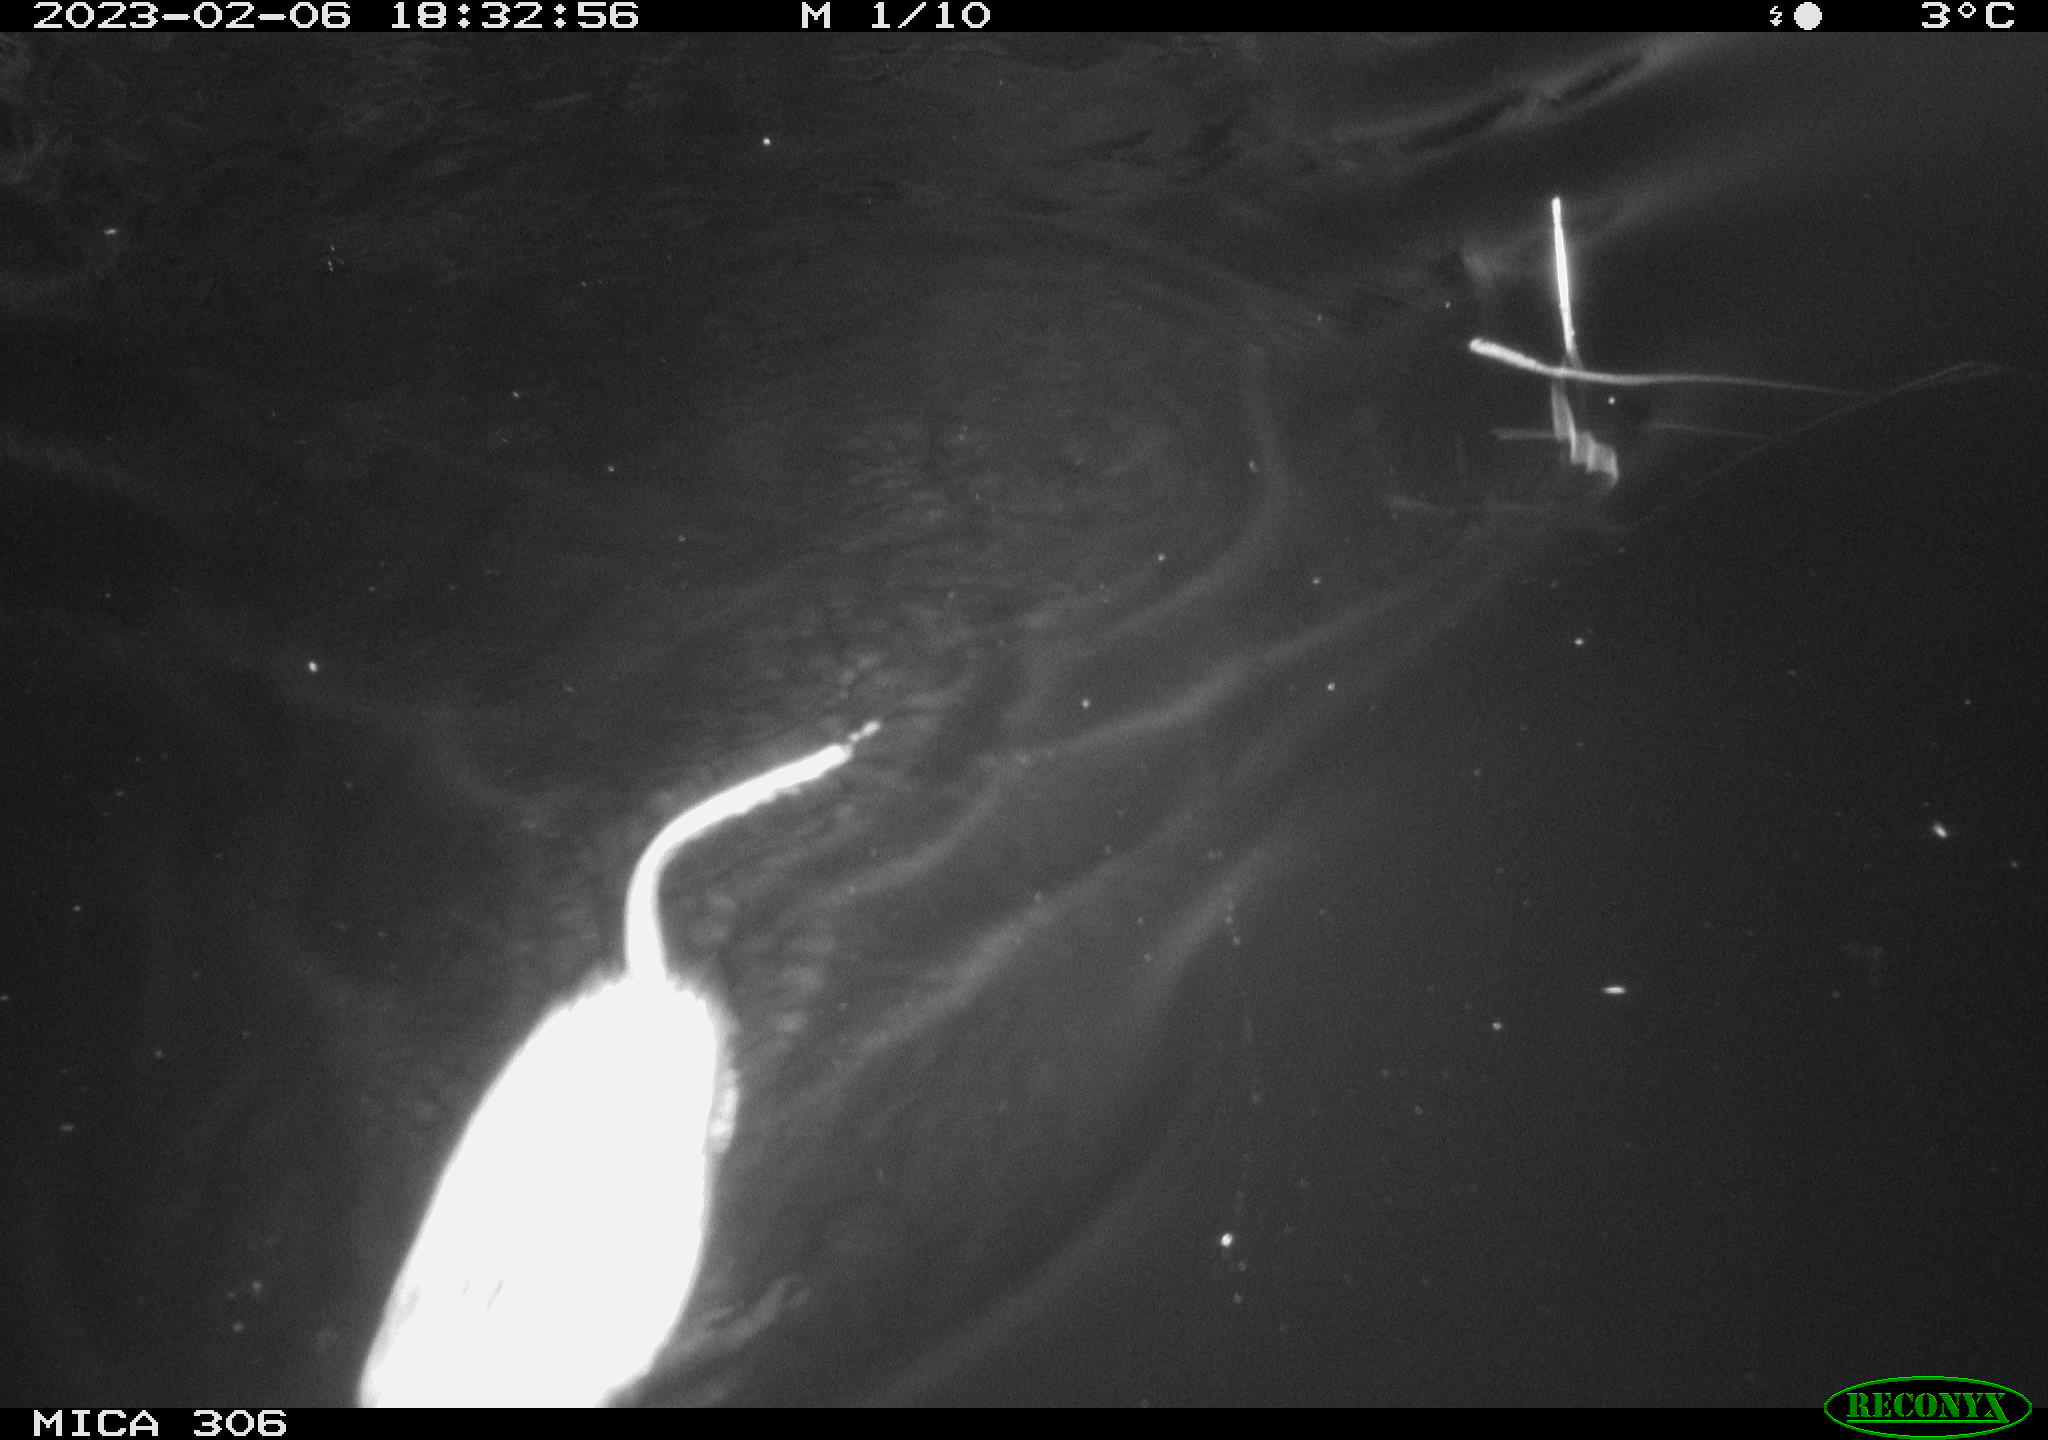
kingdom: Animalia
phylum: Chordata
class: Mammalia
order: Rodentia
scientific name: Rodentia
